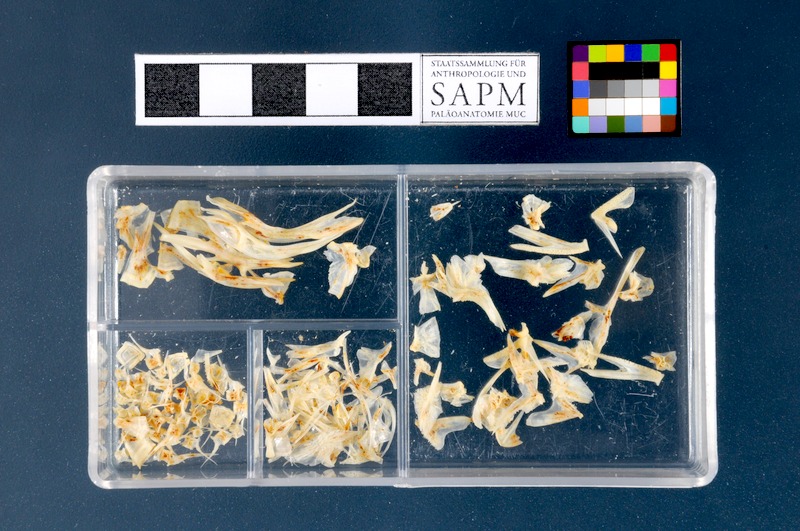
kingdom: Animalia
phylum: Chordata
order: Scorpaeniformes
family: Cottidae
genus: Taurulus
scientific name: Taurulus bubalis
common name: Sea scorpion
